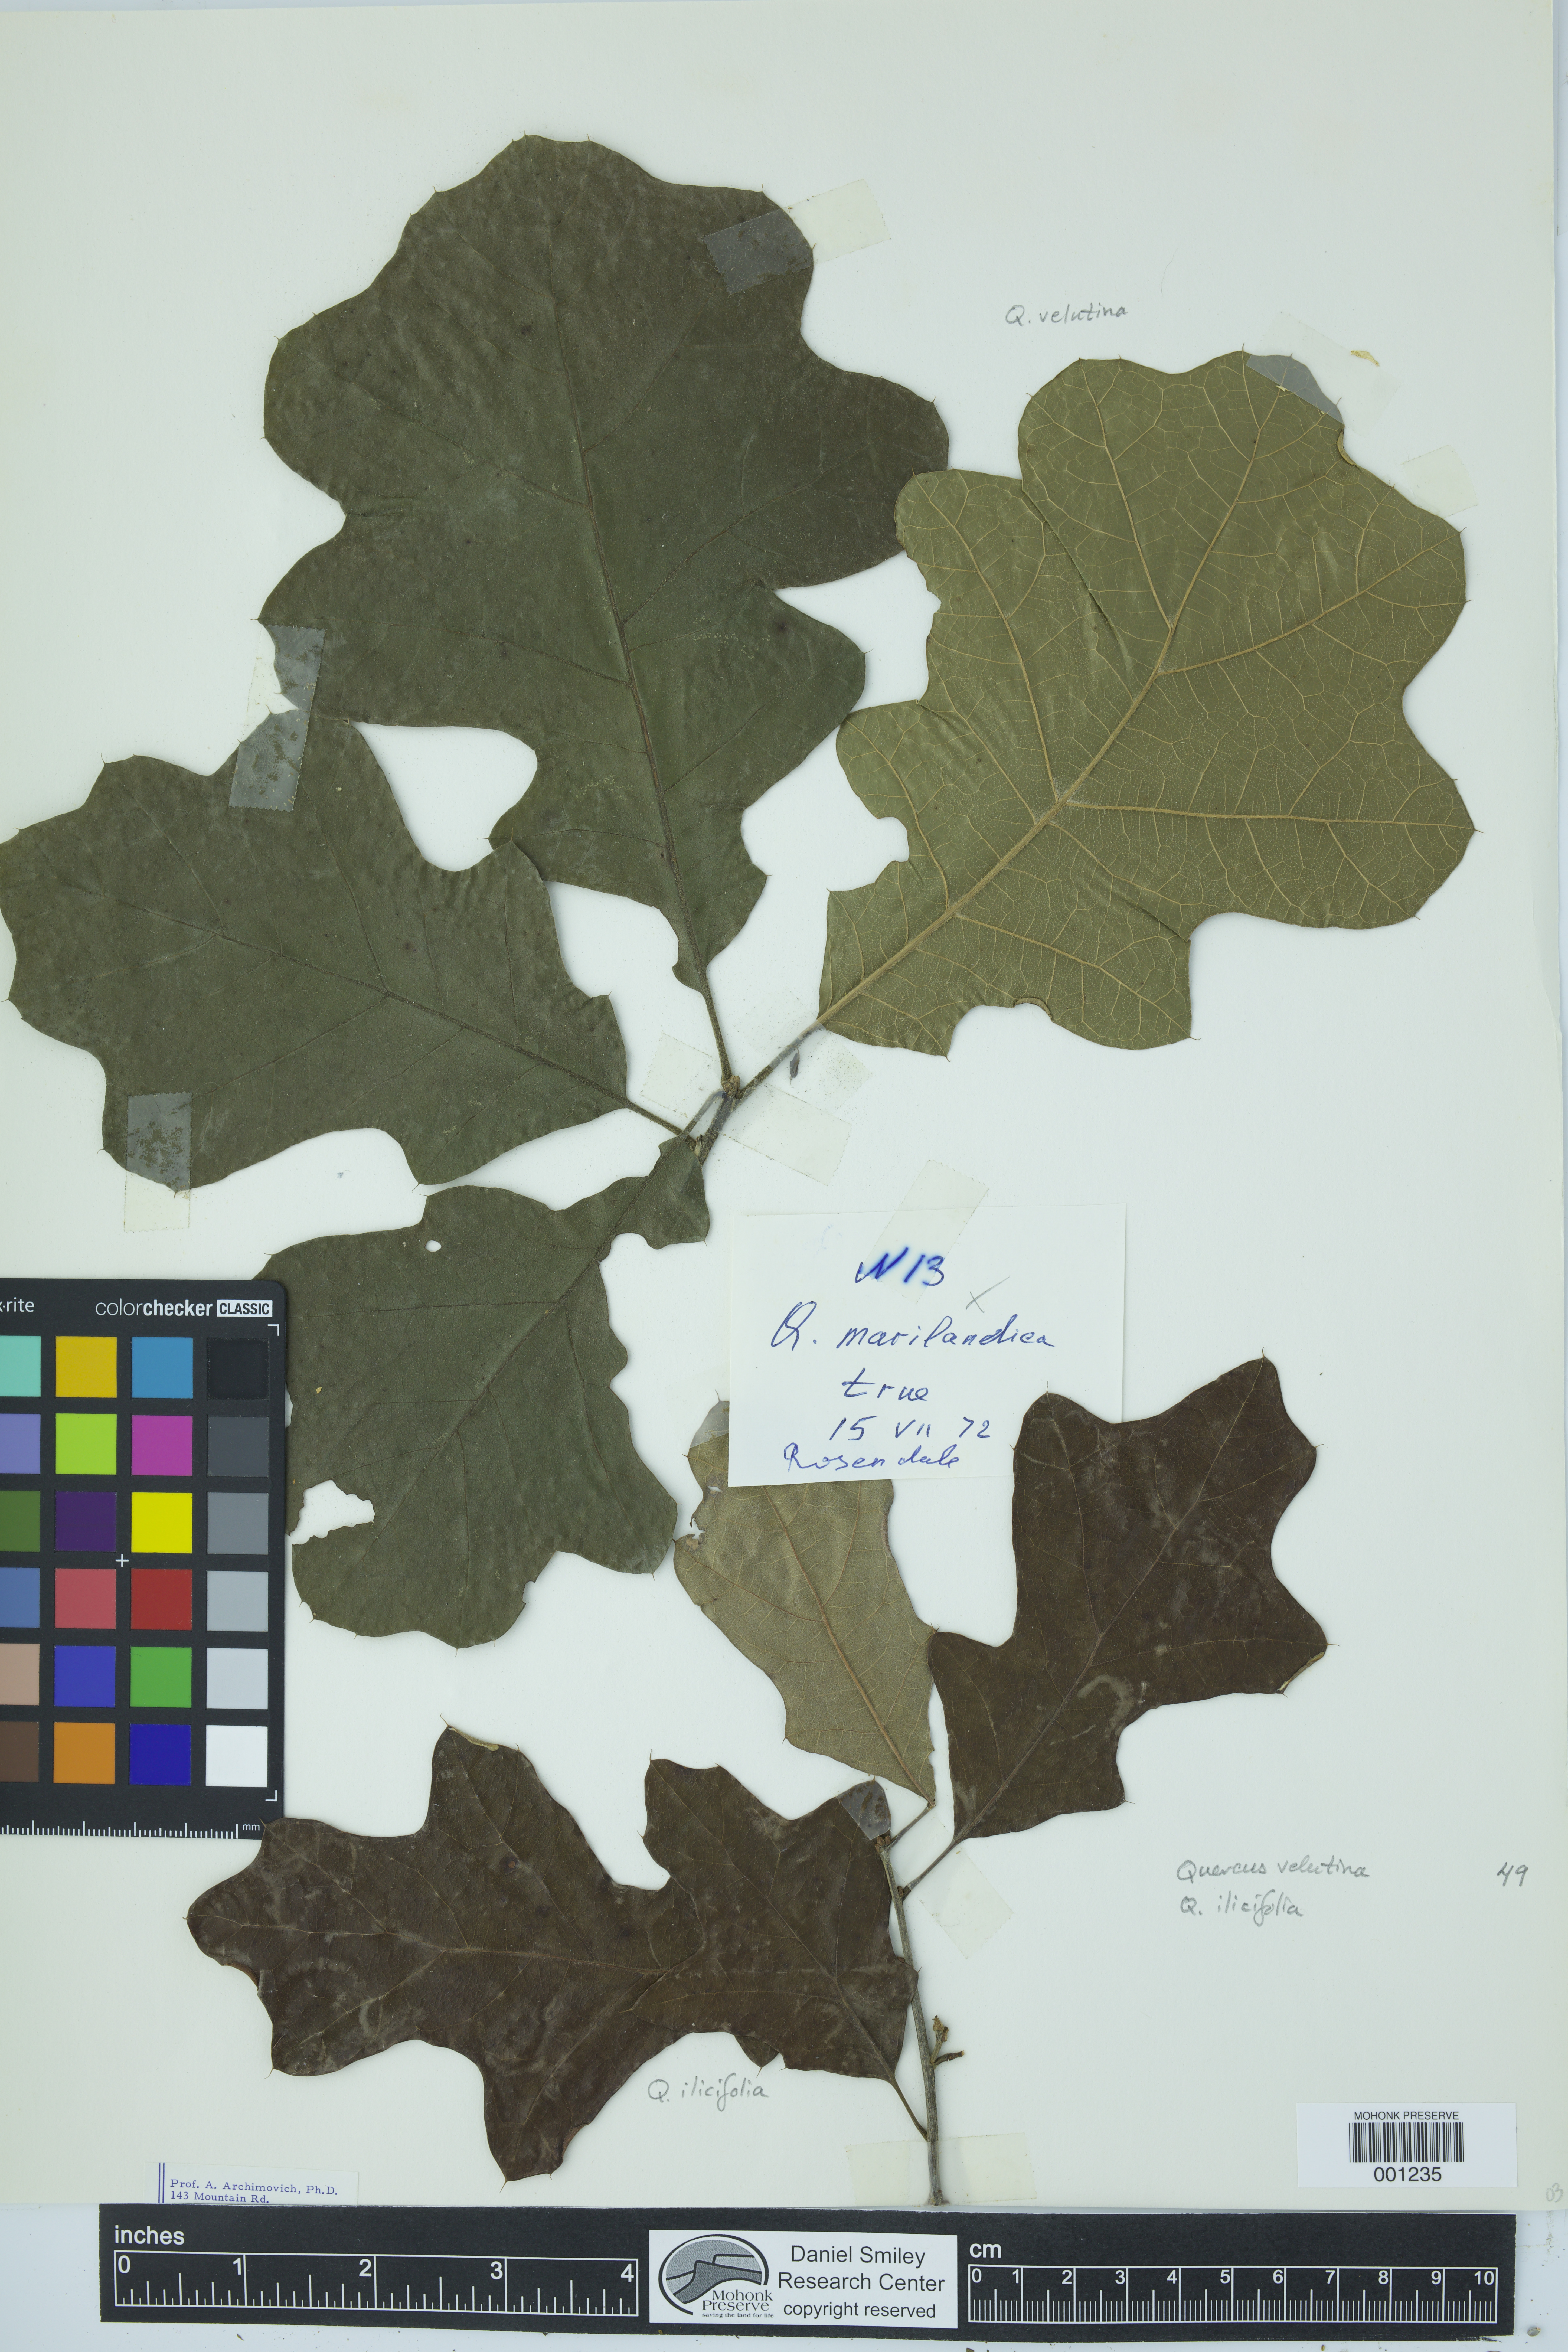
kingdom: Plantae
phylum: Tracheophyta
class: Magnoliopsida
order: Fagales
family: Fagaceae
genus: Quercus
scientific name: Quercus ilicifolia
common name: Bear oak
